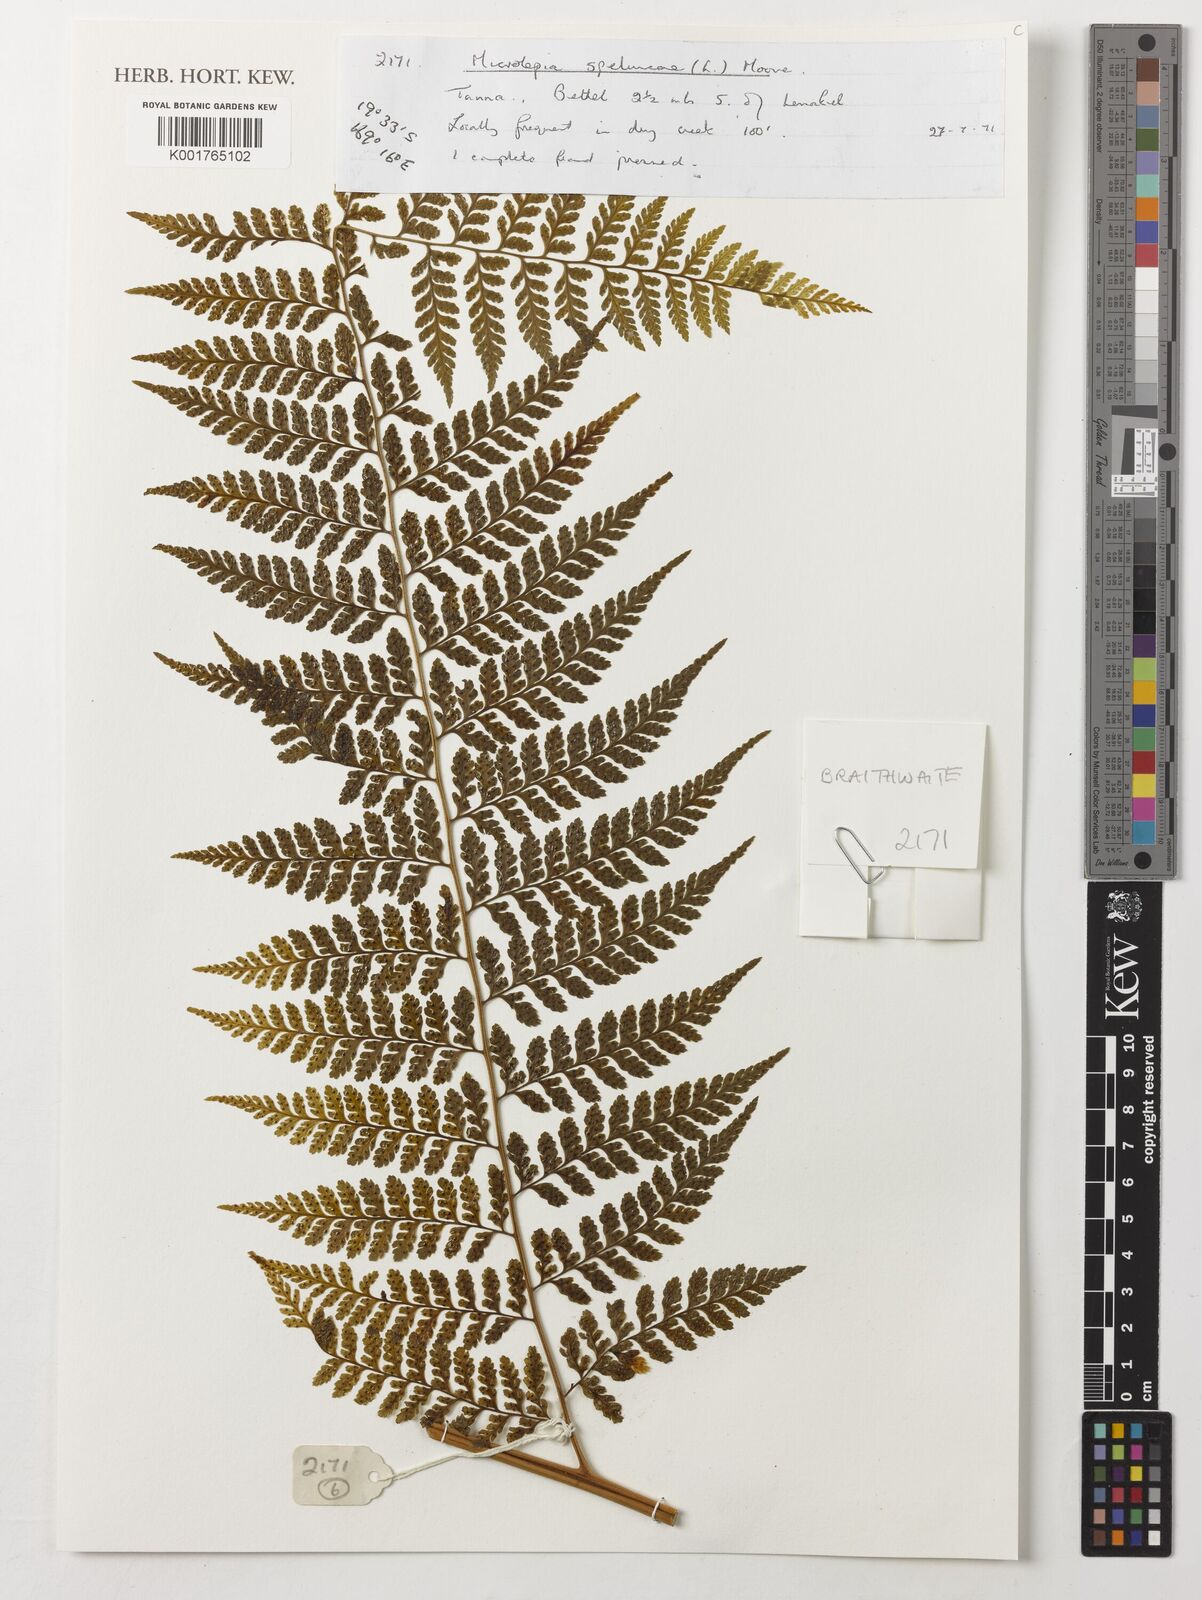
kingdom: Plantae
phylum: Tracheophyta
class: Polypodiopsida
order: Polypodiales
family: Dennstaedtiaceae
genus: Microlepia
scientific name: Microlepia speluncae
